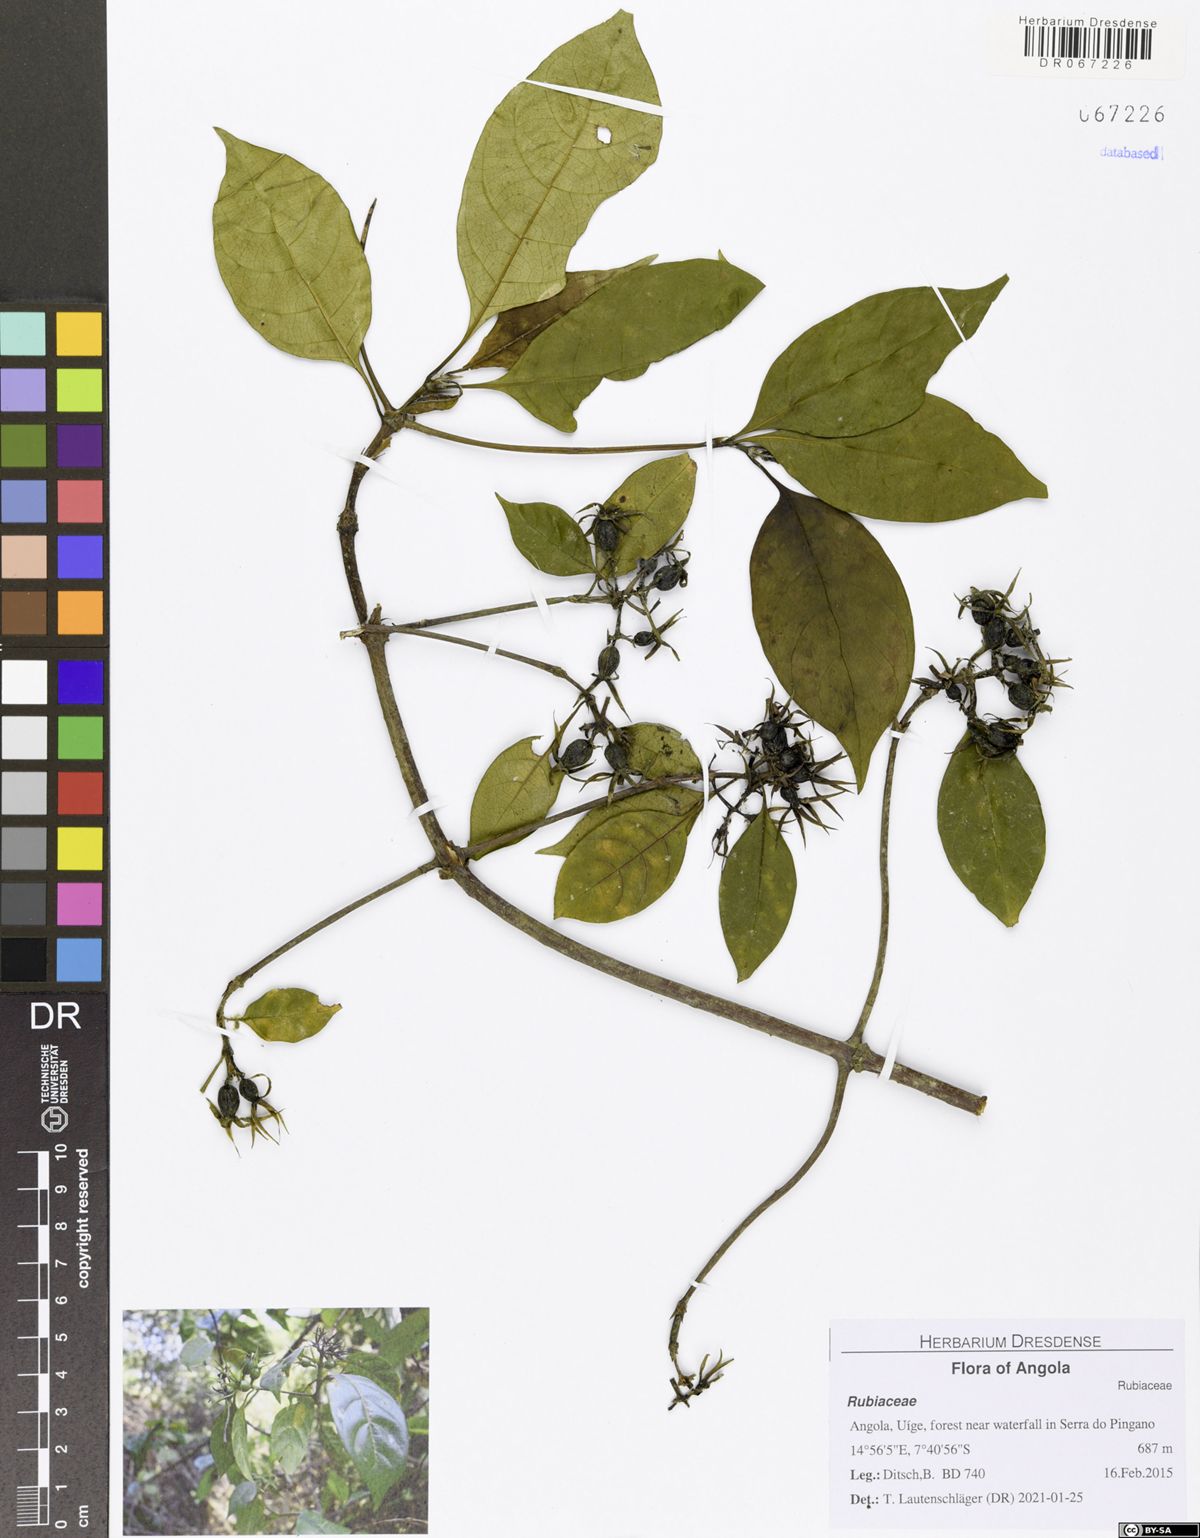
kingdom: Plantae
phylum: Tracheophyta
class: Magnoliopsida
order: Gentianales
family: Rubiaceae
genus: Leptactina
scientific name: Leptactina laurentiana
